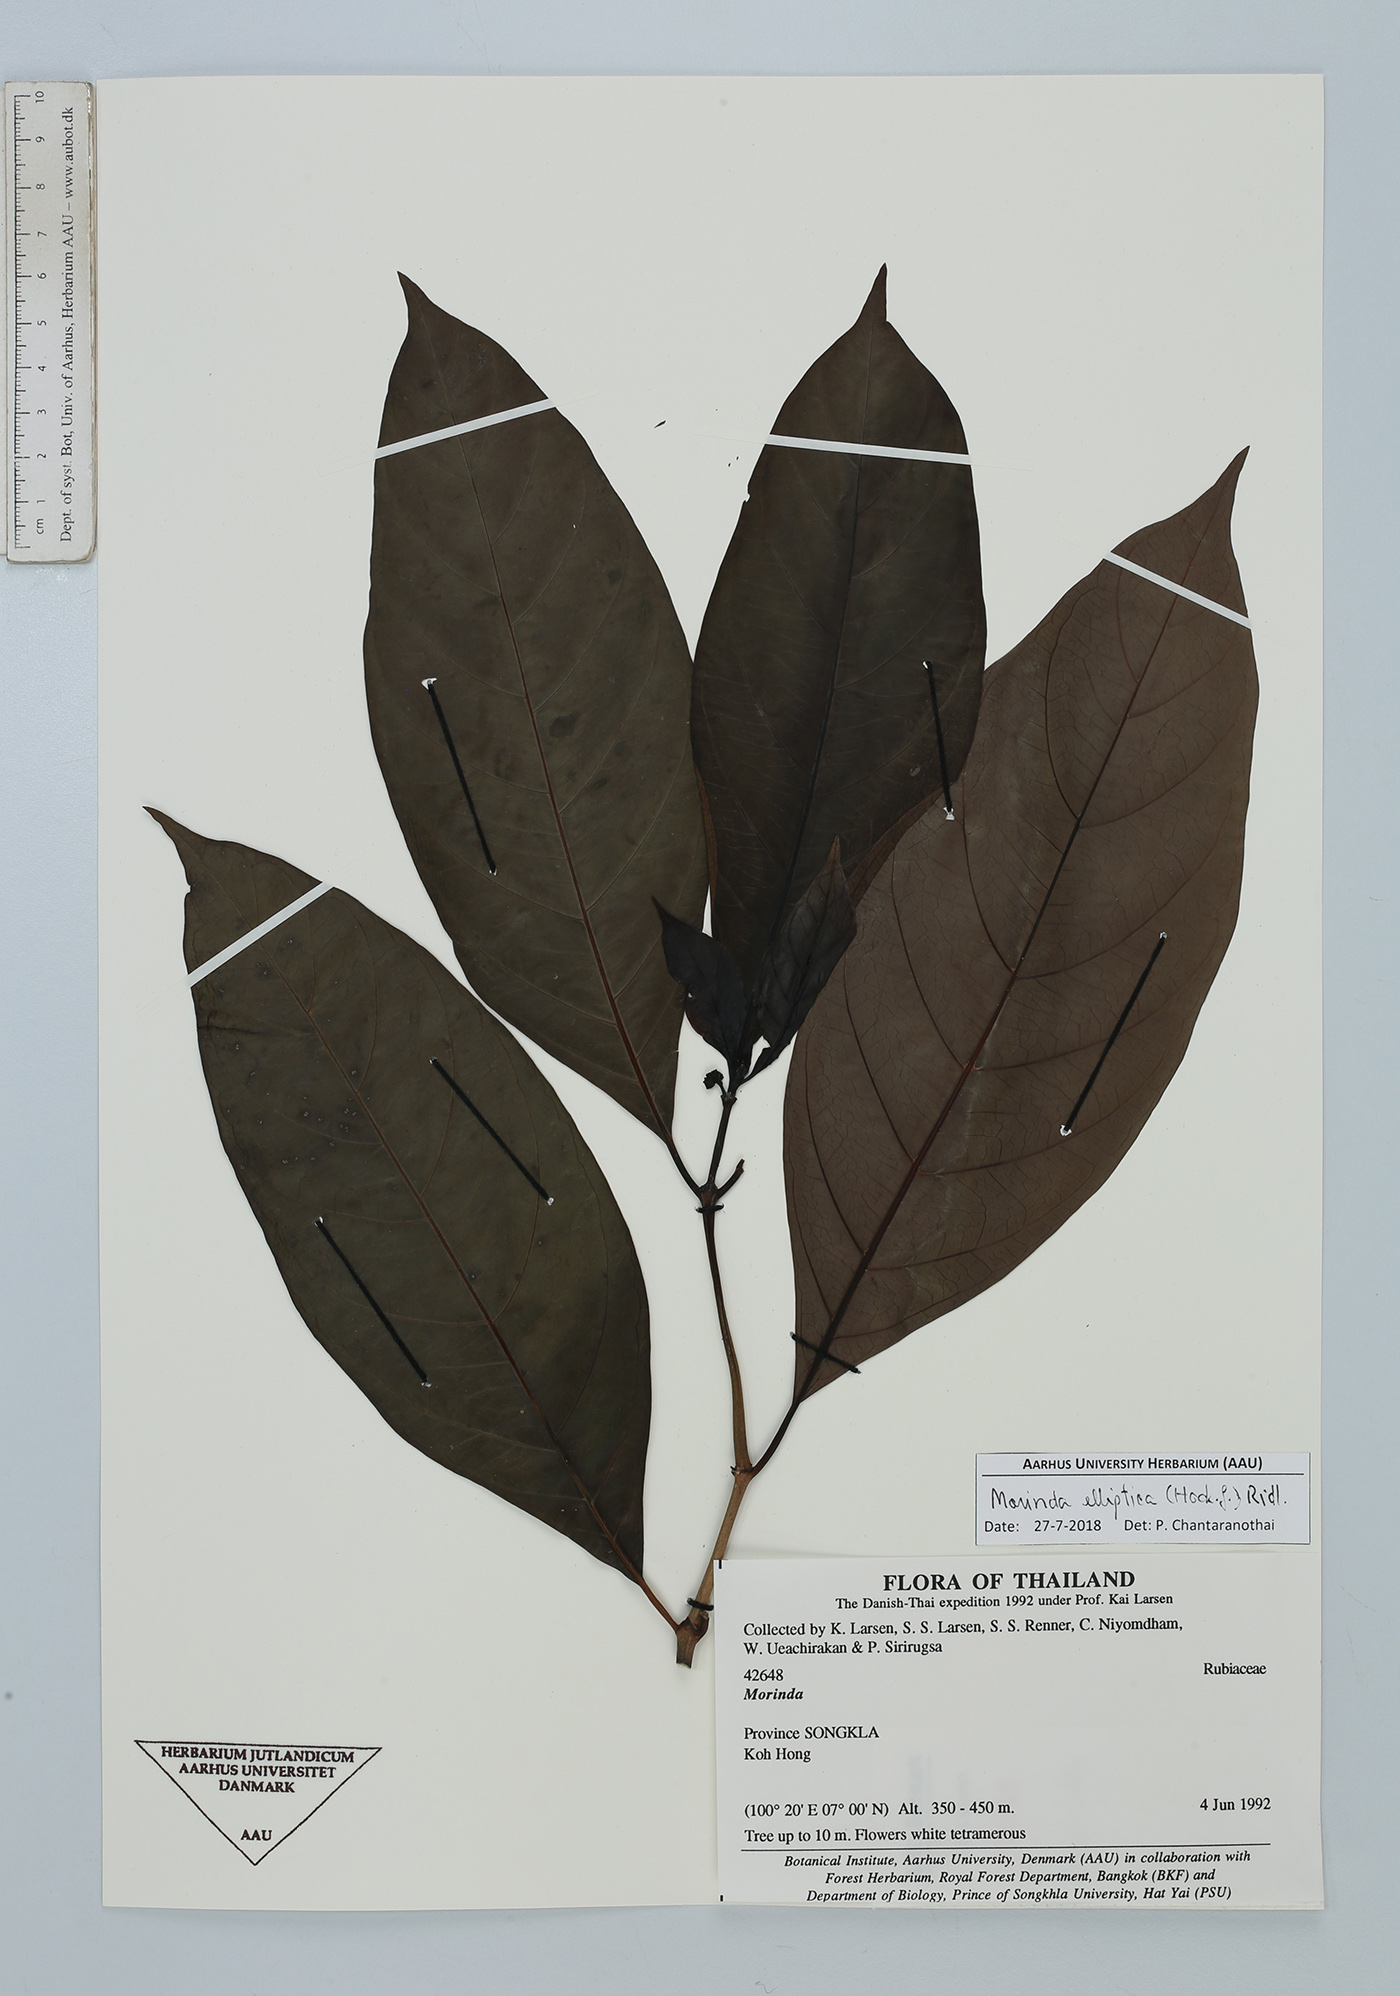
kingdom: Plantae
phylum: Tracheophyta
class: Magnoliopsida
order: Gentianales
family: Rubiaceae
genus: Morinda
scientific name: Morinda elliptica
